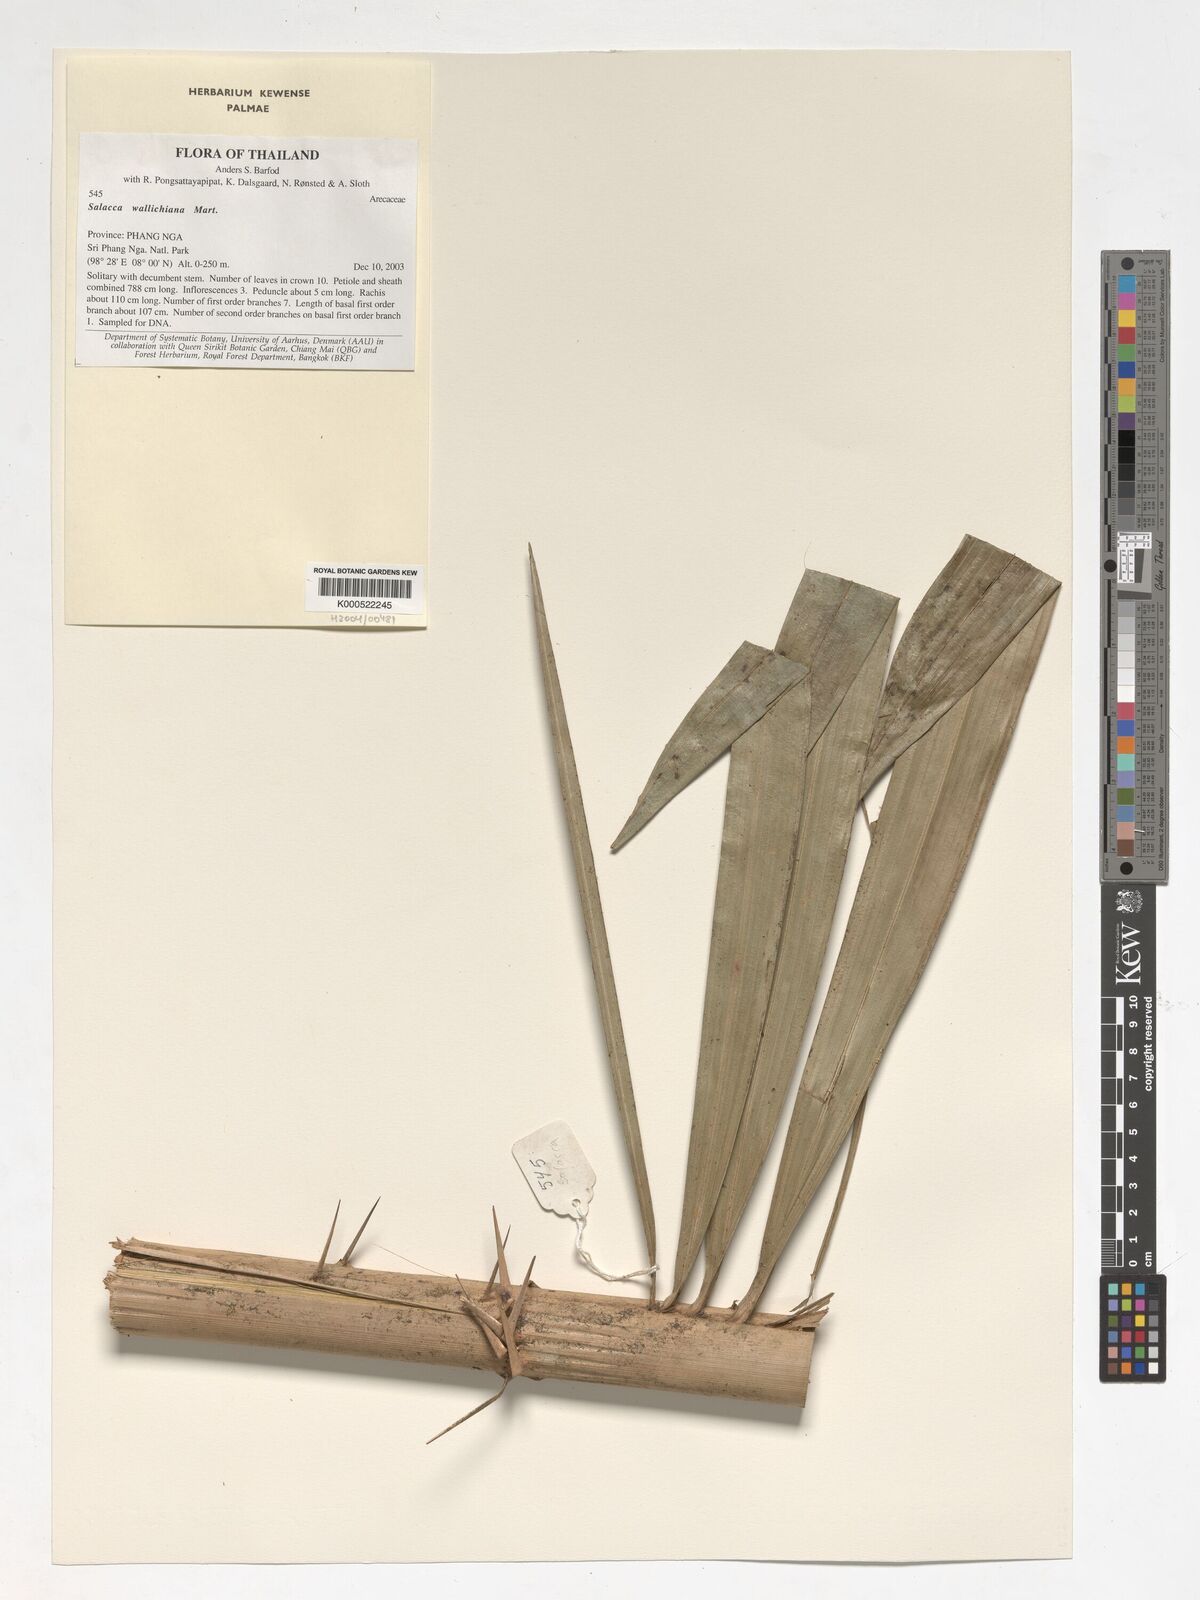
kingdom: Plantae
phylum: Tracheophyta
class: Liliopsida
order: Arecales
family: Arecaceae
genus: Salacca
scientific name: Salacca wallichiana
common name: Rakum palm
